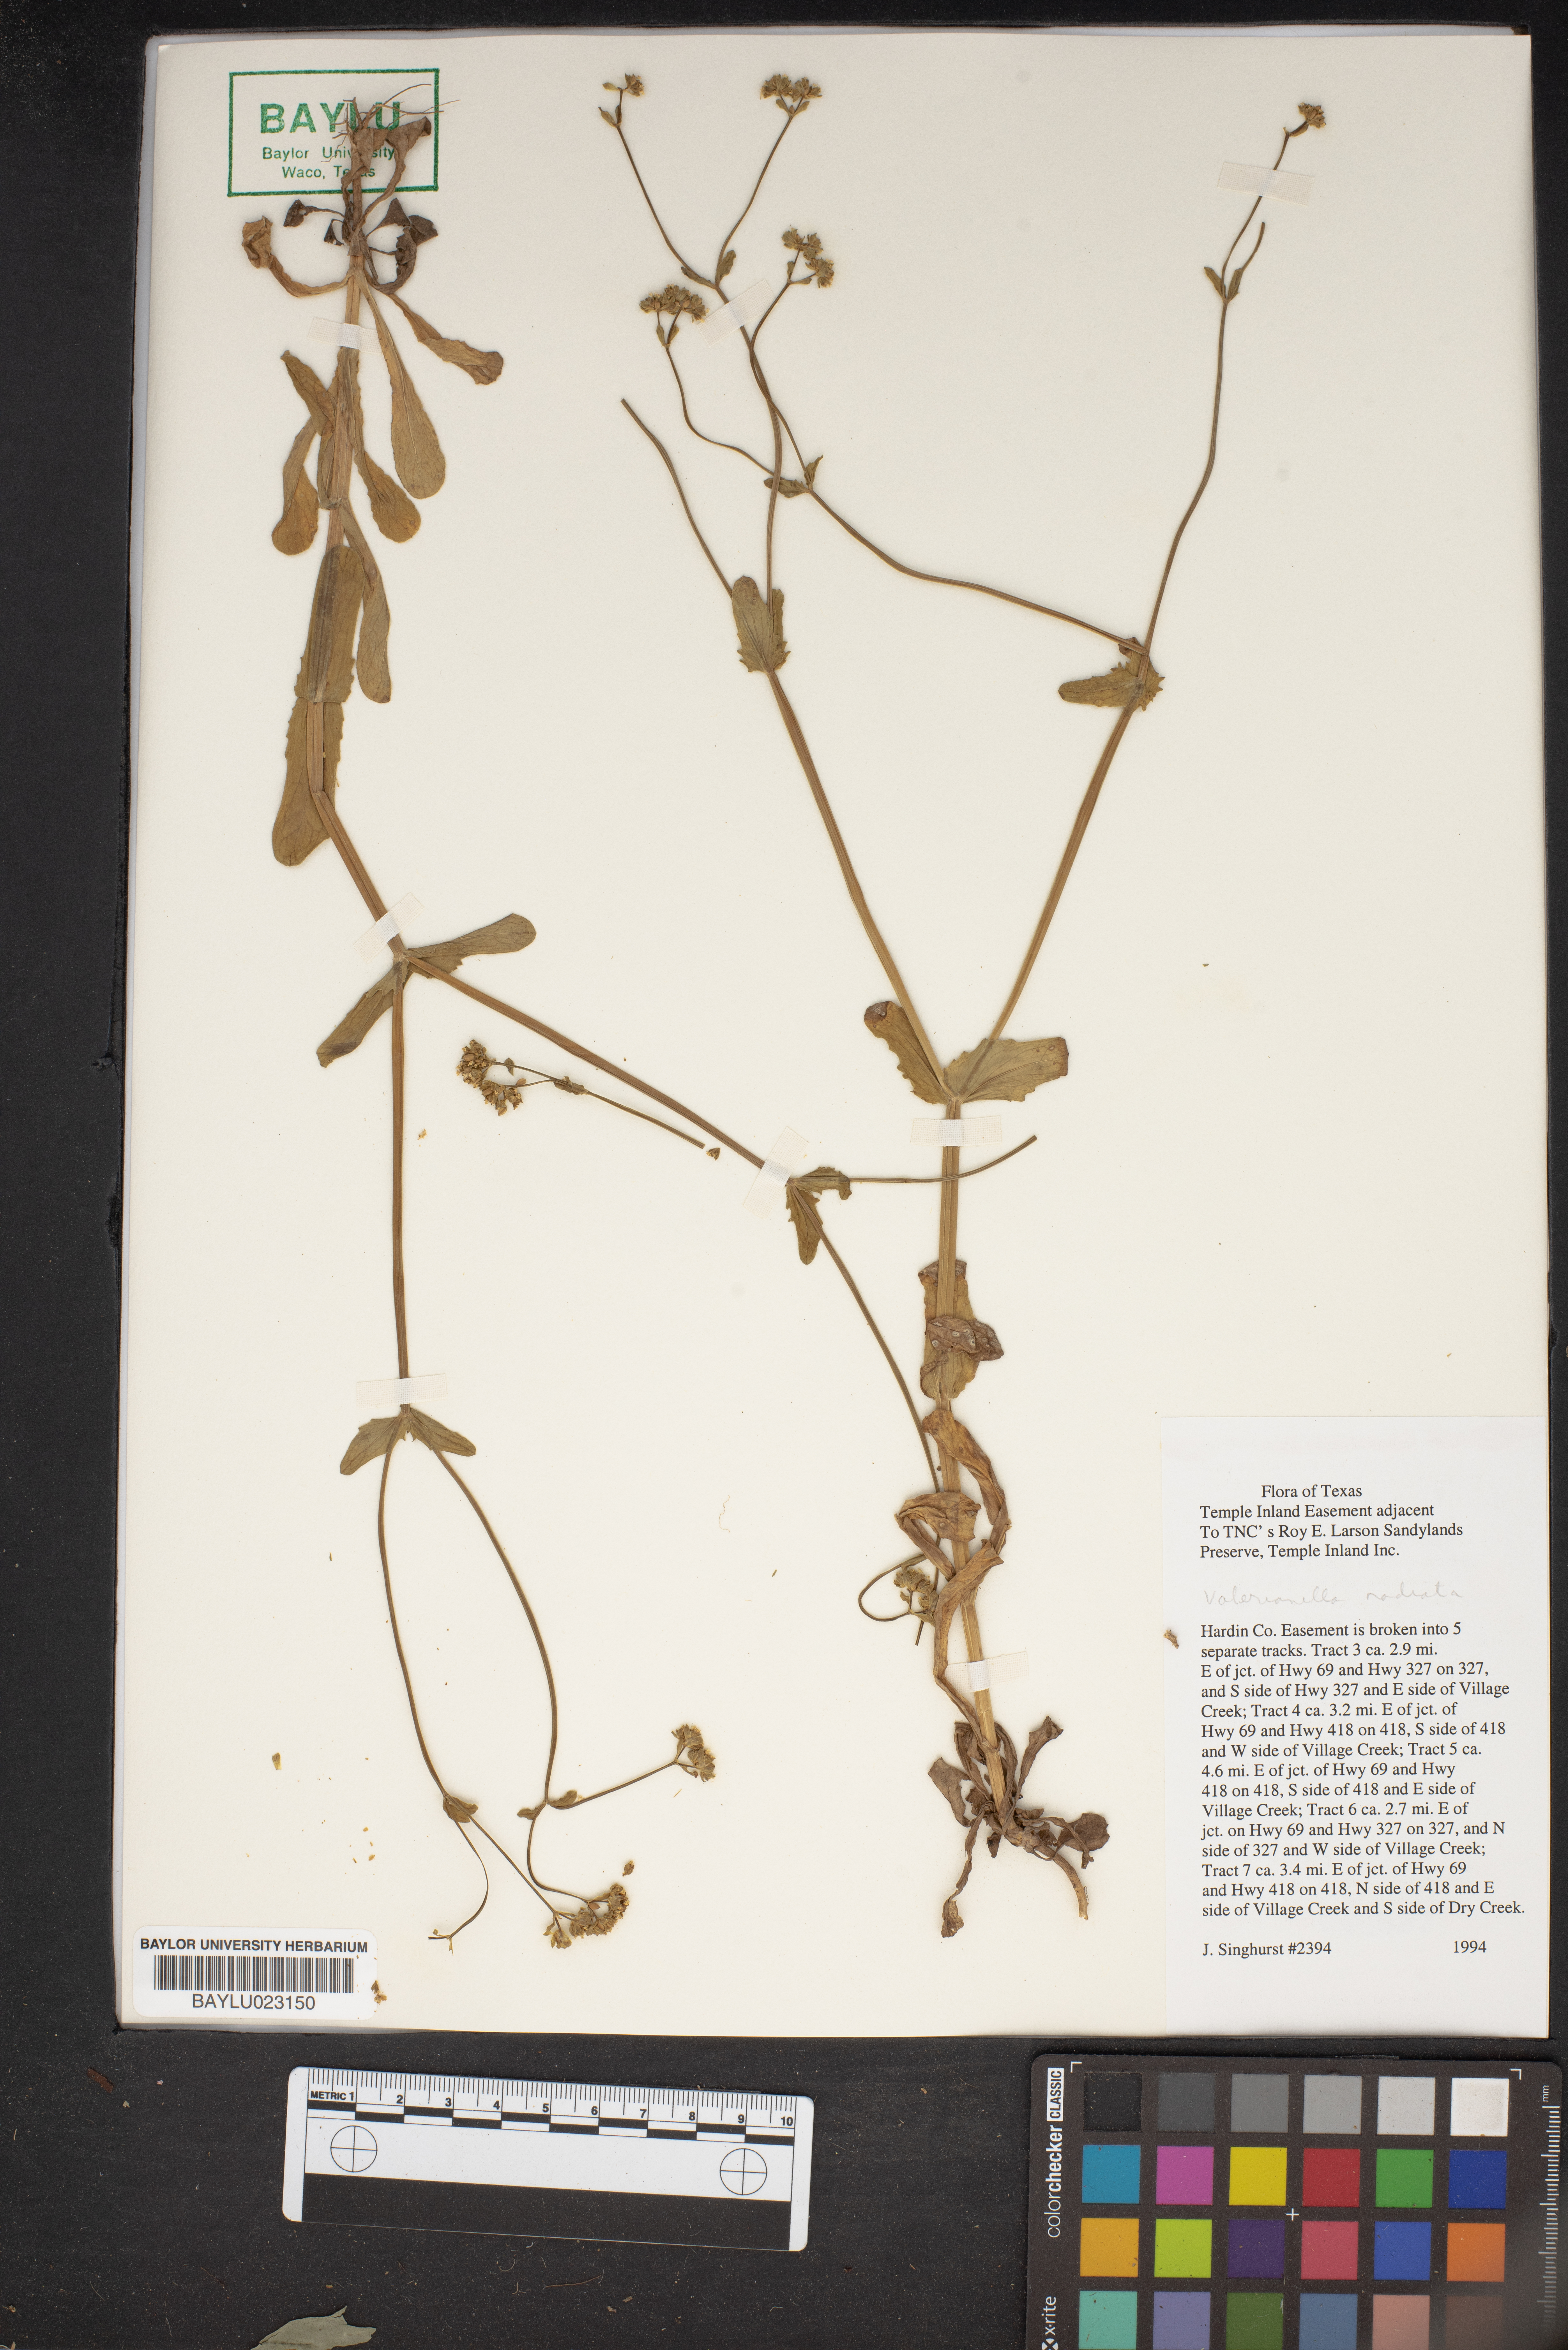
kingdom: Plantae
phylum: Tracheophyta
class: Magnoliopsida
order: Dipsacales
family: Caprifoliaceae
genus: Valerianella
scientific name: Valerianella radiata
